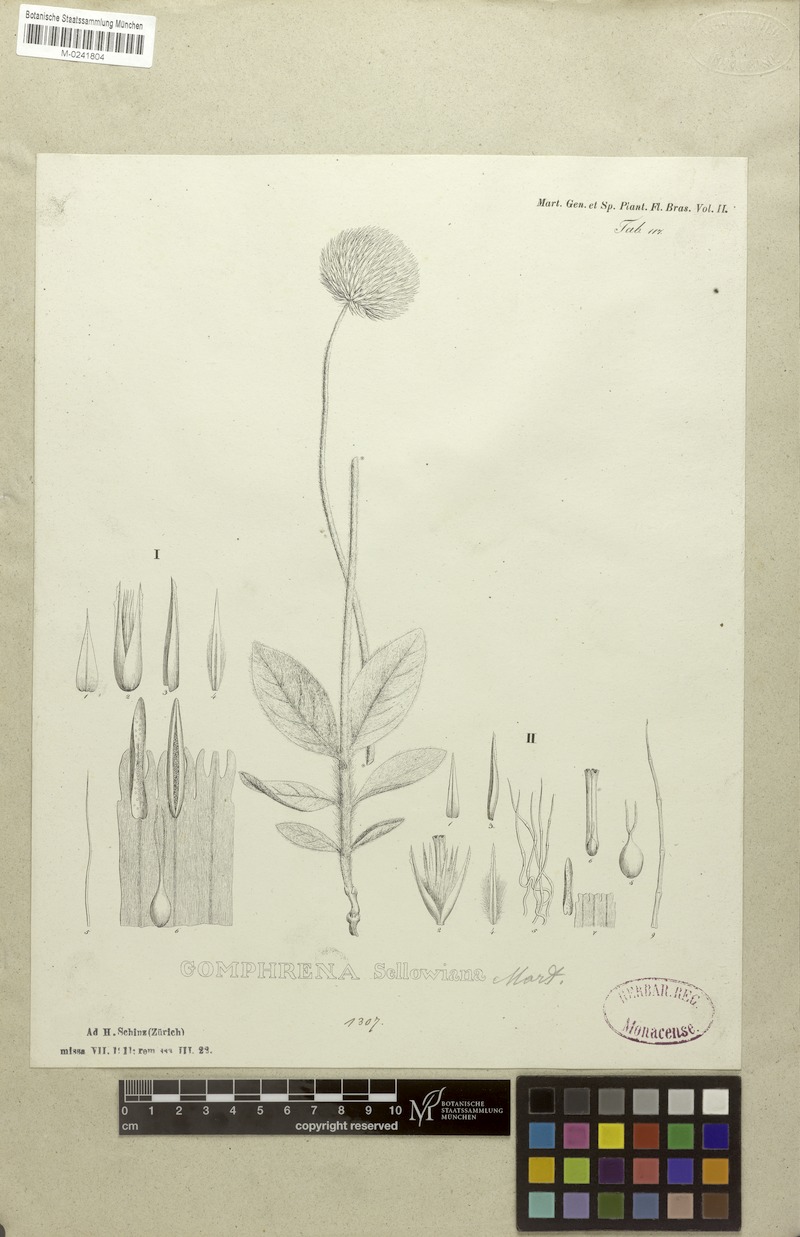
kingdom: Plantae
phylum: Tracheophyta
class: Magnoliopsida
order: Caryophyllales
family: Amaranthaceae
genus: Gomphrena
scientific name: Gomphrena sellowiana
